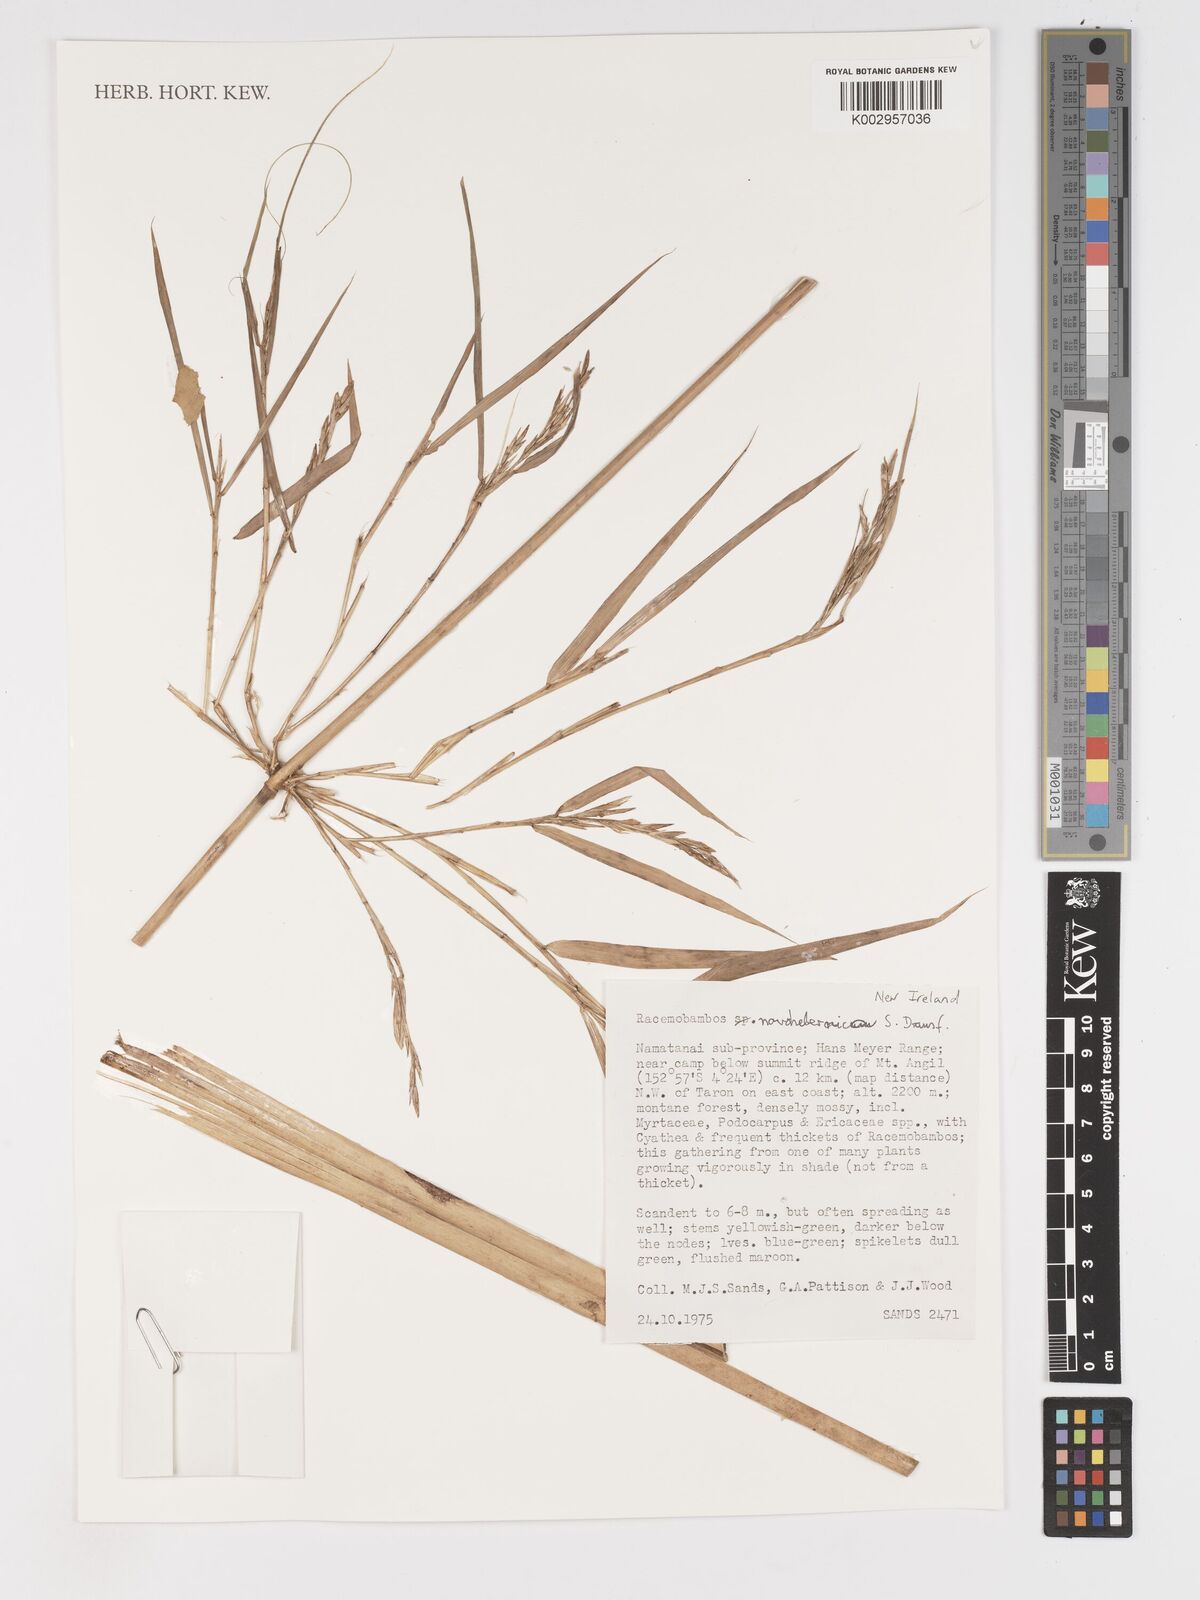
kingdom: Plantae
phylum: Tracheophyta
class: Liliopsida
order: Poales
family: Poaceae
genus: Racemobambos
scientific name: Racemobambos novohibernica
